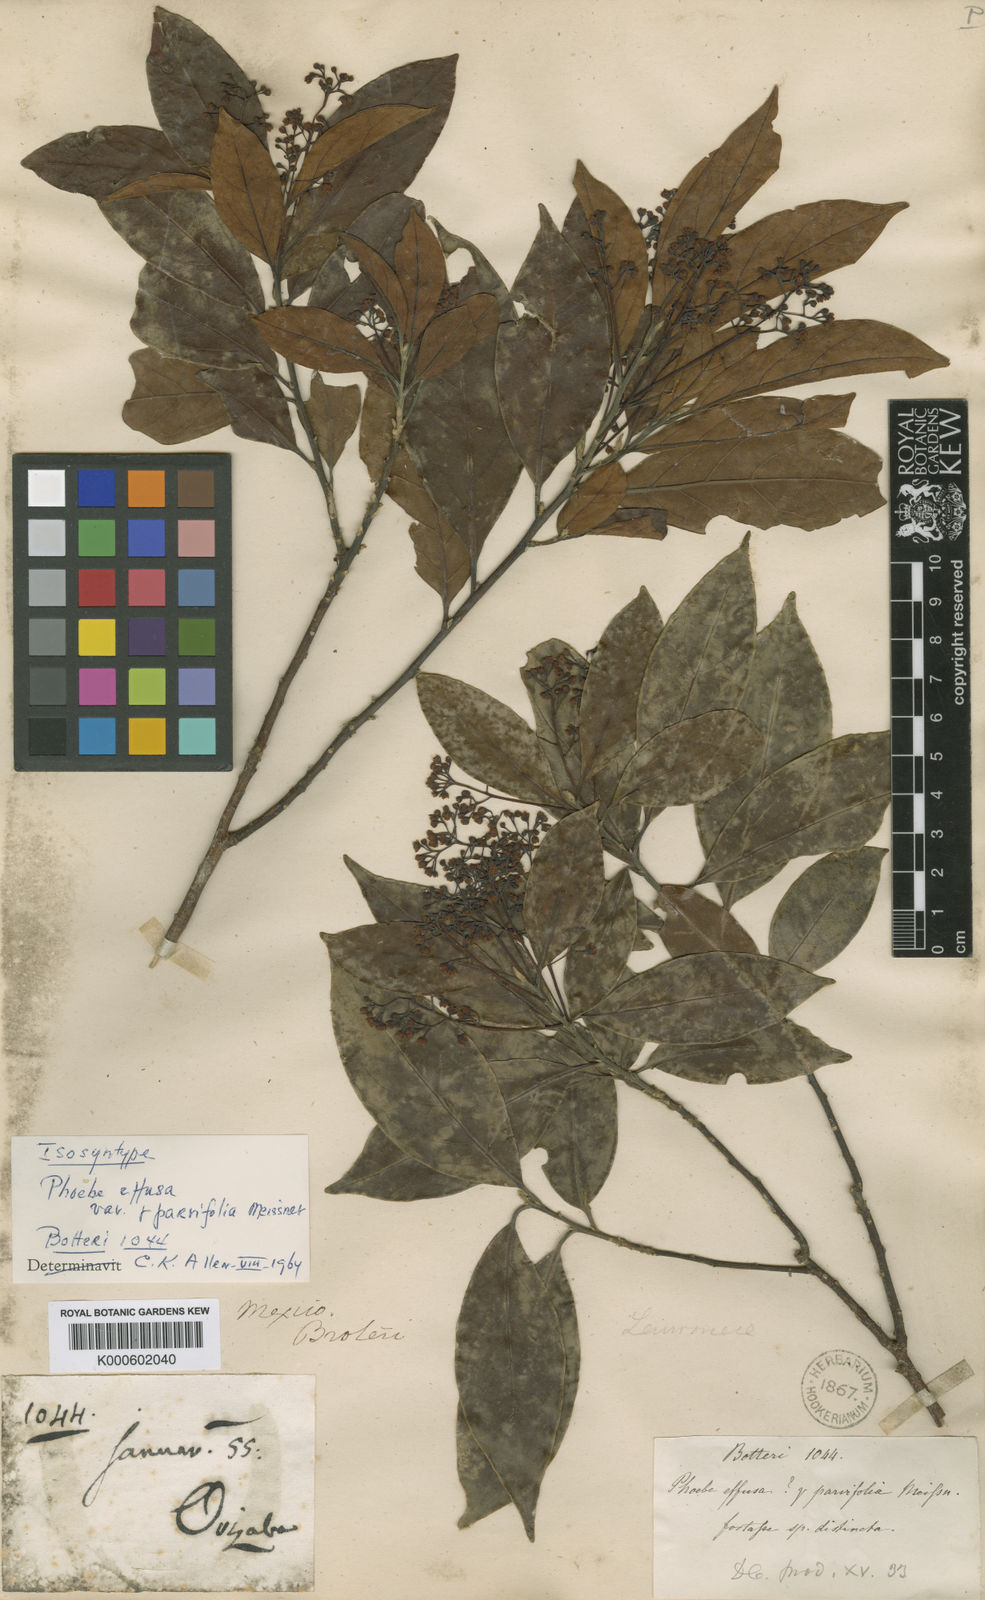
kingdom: Plantae
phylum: Tracheophyta
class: Magnoliopsida
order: Laurales
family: Lauraceae
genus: Ocotea
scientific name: Ocotea effusa
